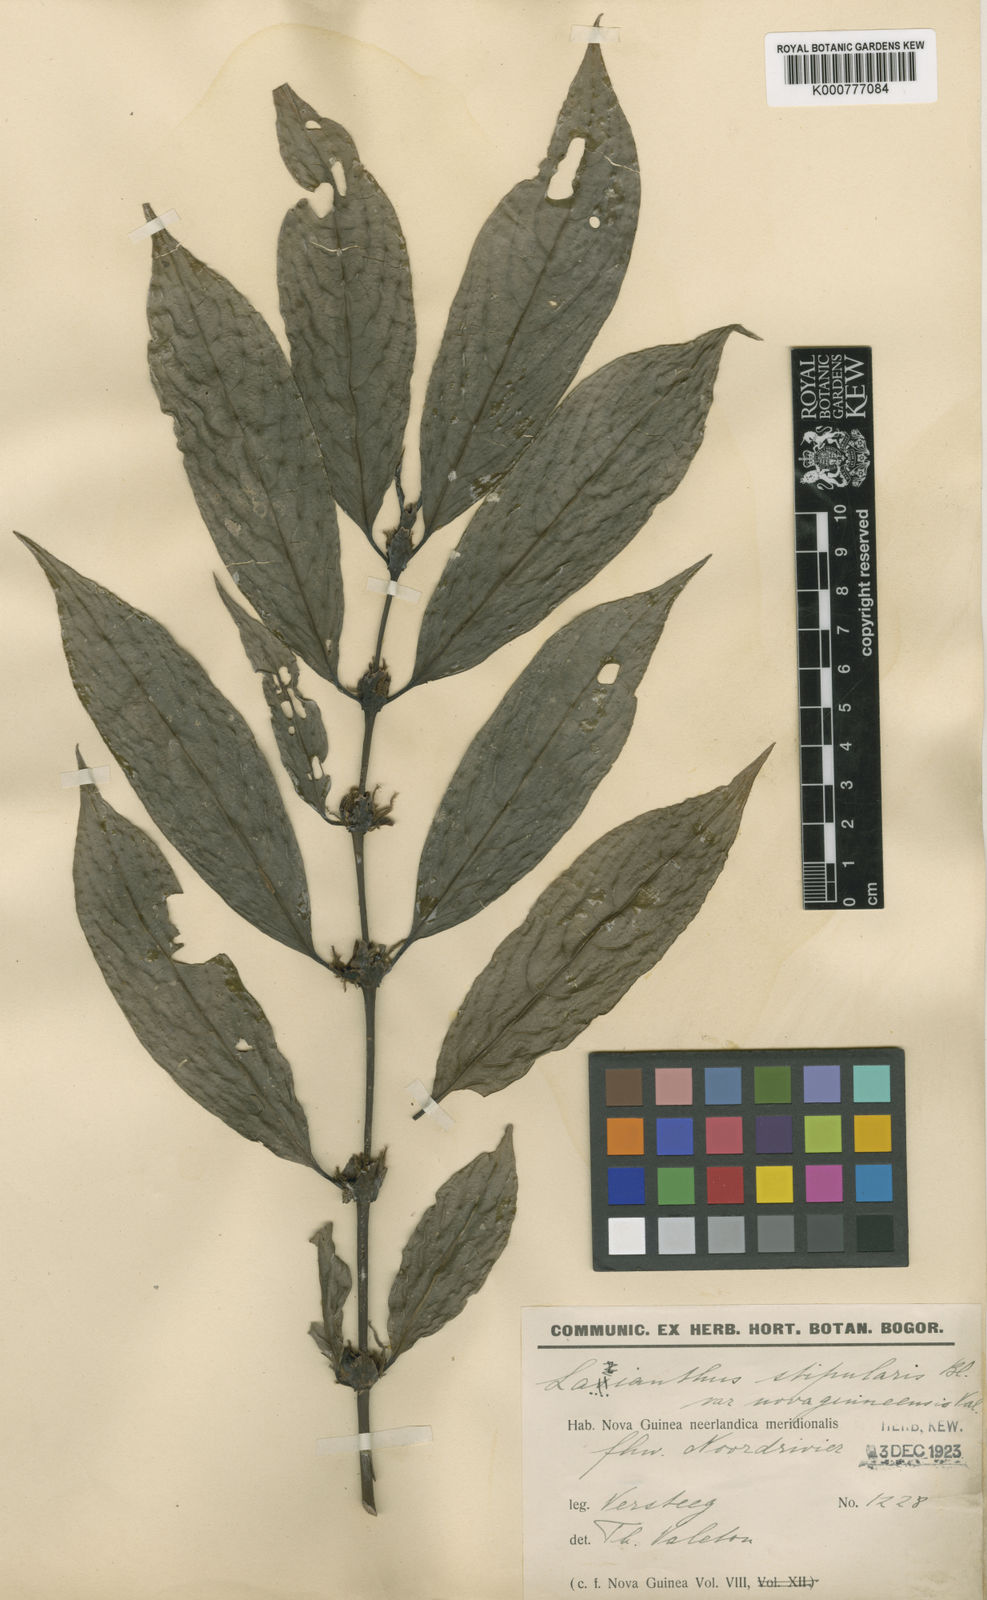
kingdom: Plantae
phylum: Tracheophyta
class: Magnoliopsida
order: Gentianales
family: Rubiaceae
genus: Lasianthus
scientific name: Lasianthus stipularis
